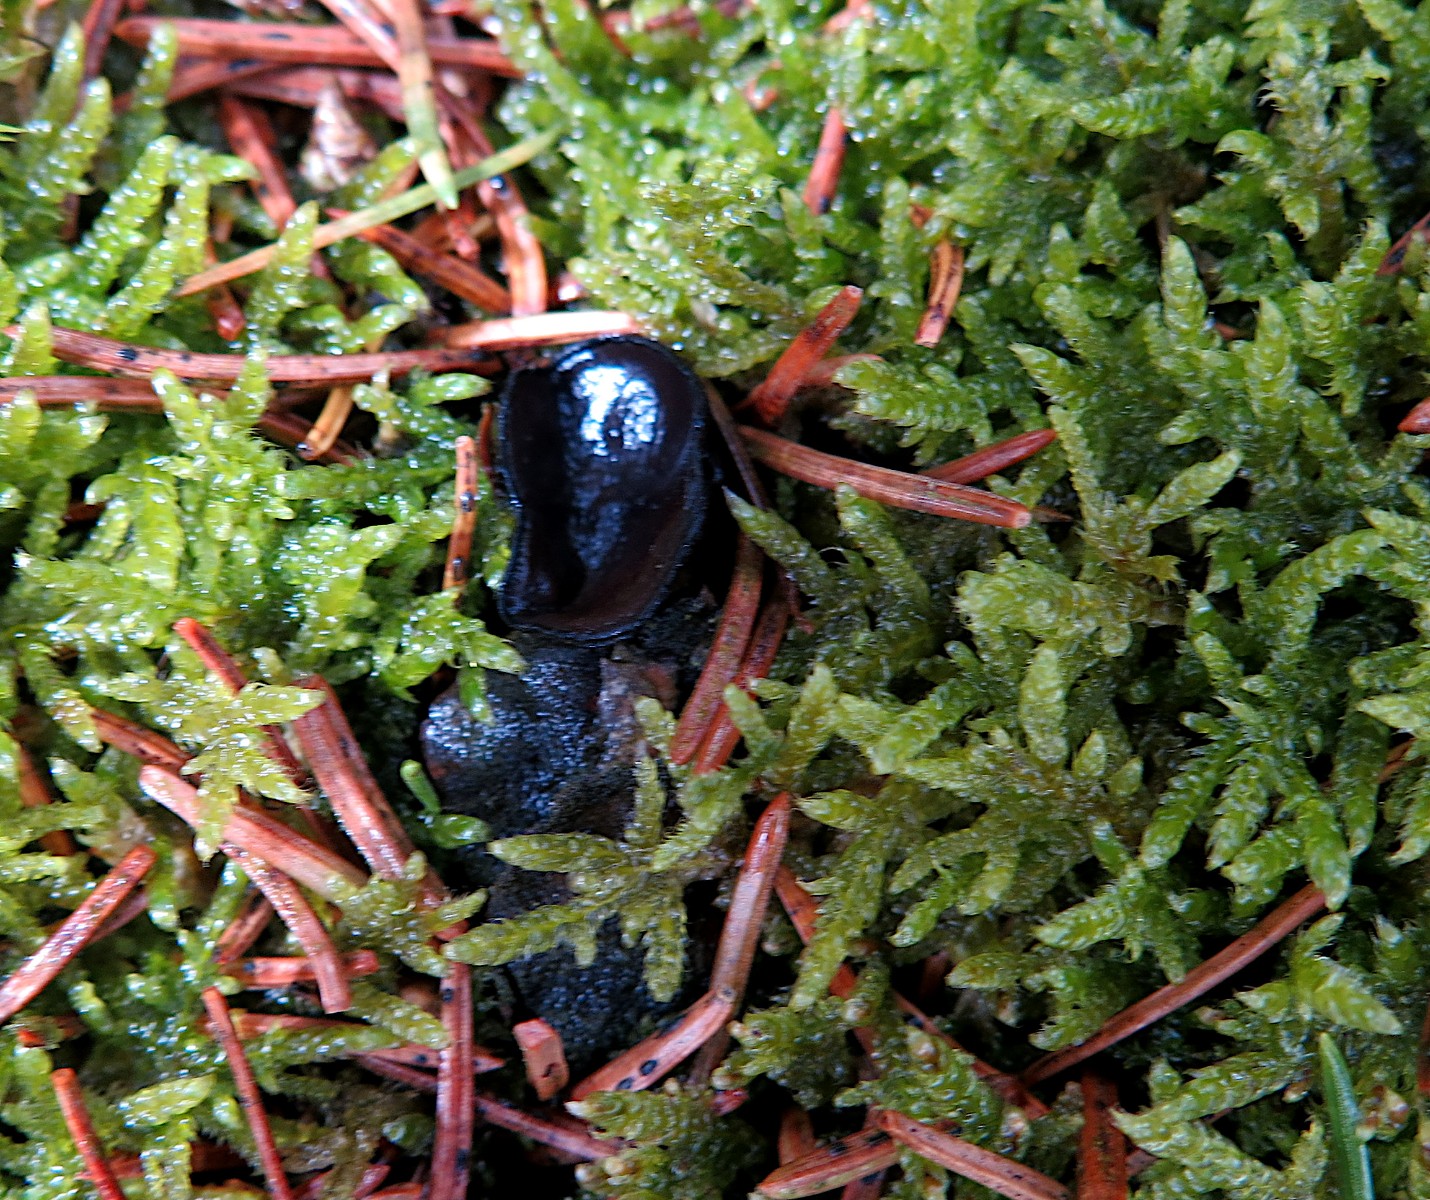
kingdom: Fungi
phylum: Ascomycota
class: Pezizomycetes
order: Pezizales
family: Sarcosomataceae
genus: Pseudoplectania
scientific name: Pseudoplectania nigrella
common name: almindelig sortbæger
